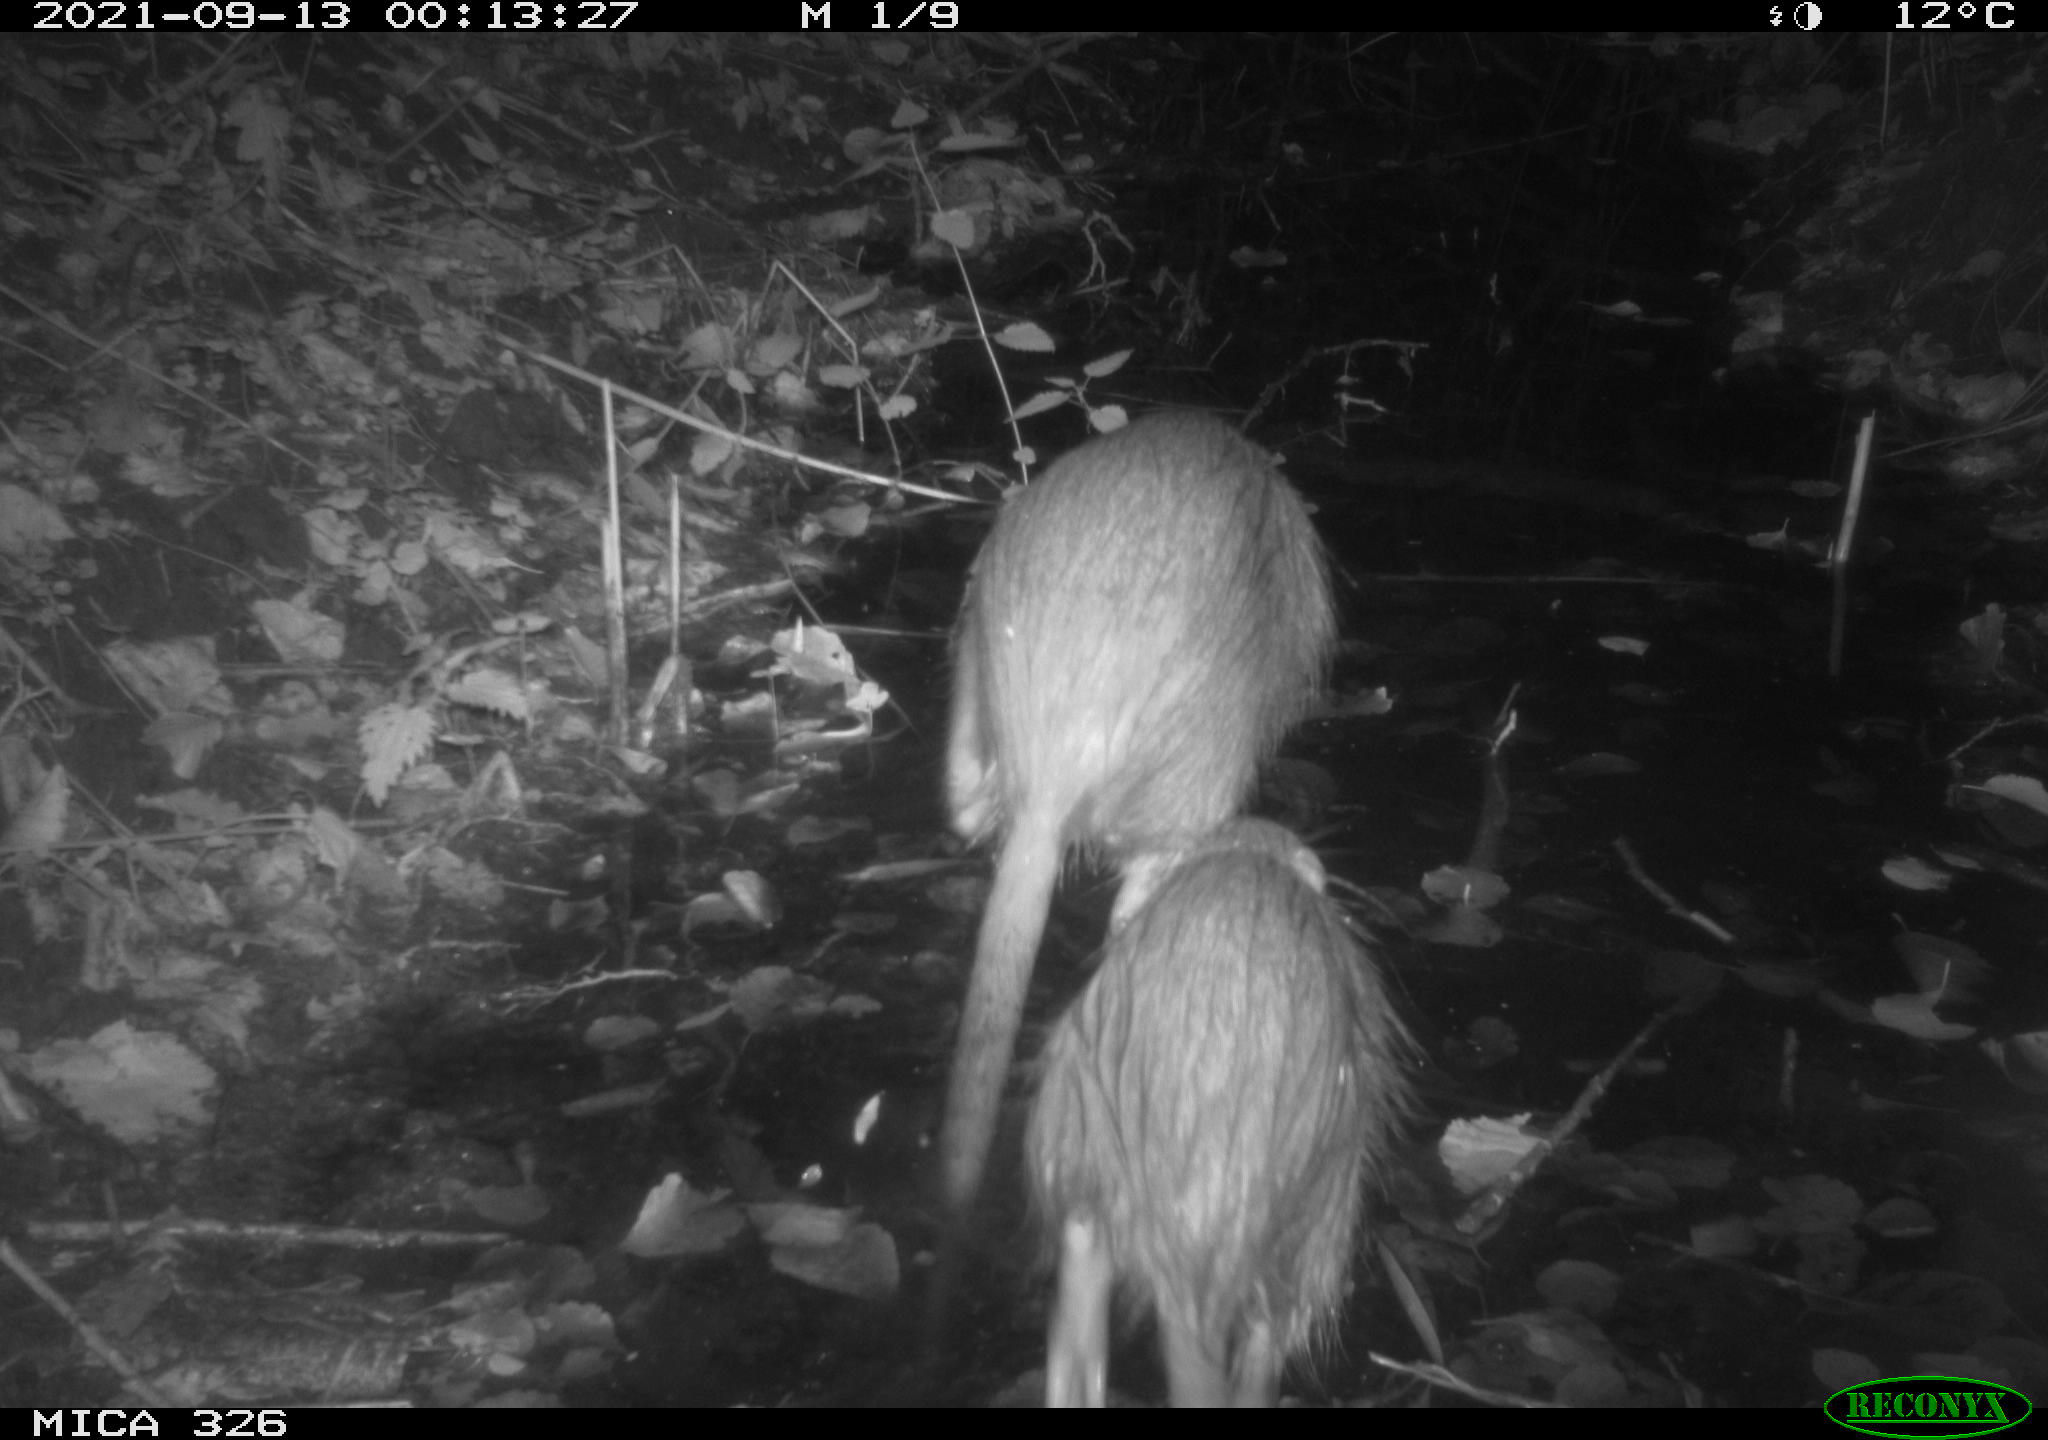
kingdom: Animalia
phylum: Chordata
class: Mammalia
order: Rodentia
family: Myocastoridae
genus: Myocastor
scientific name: Myocastor coypus
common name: Coypu
